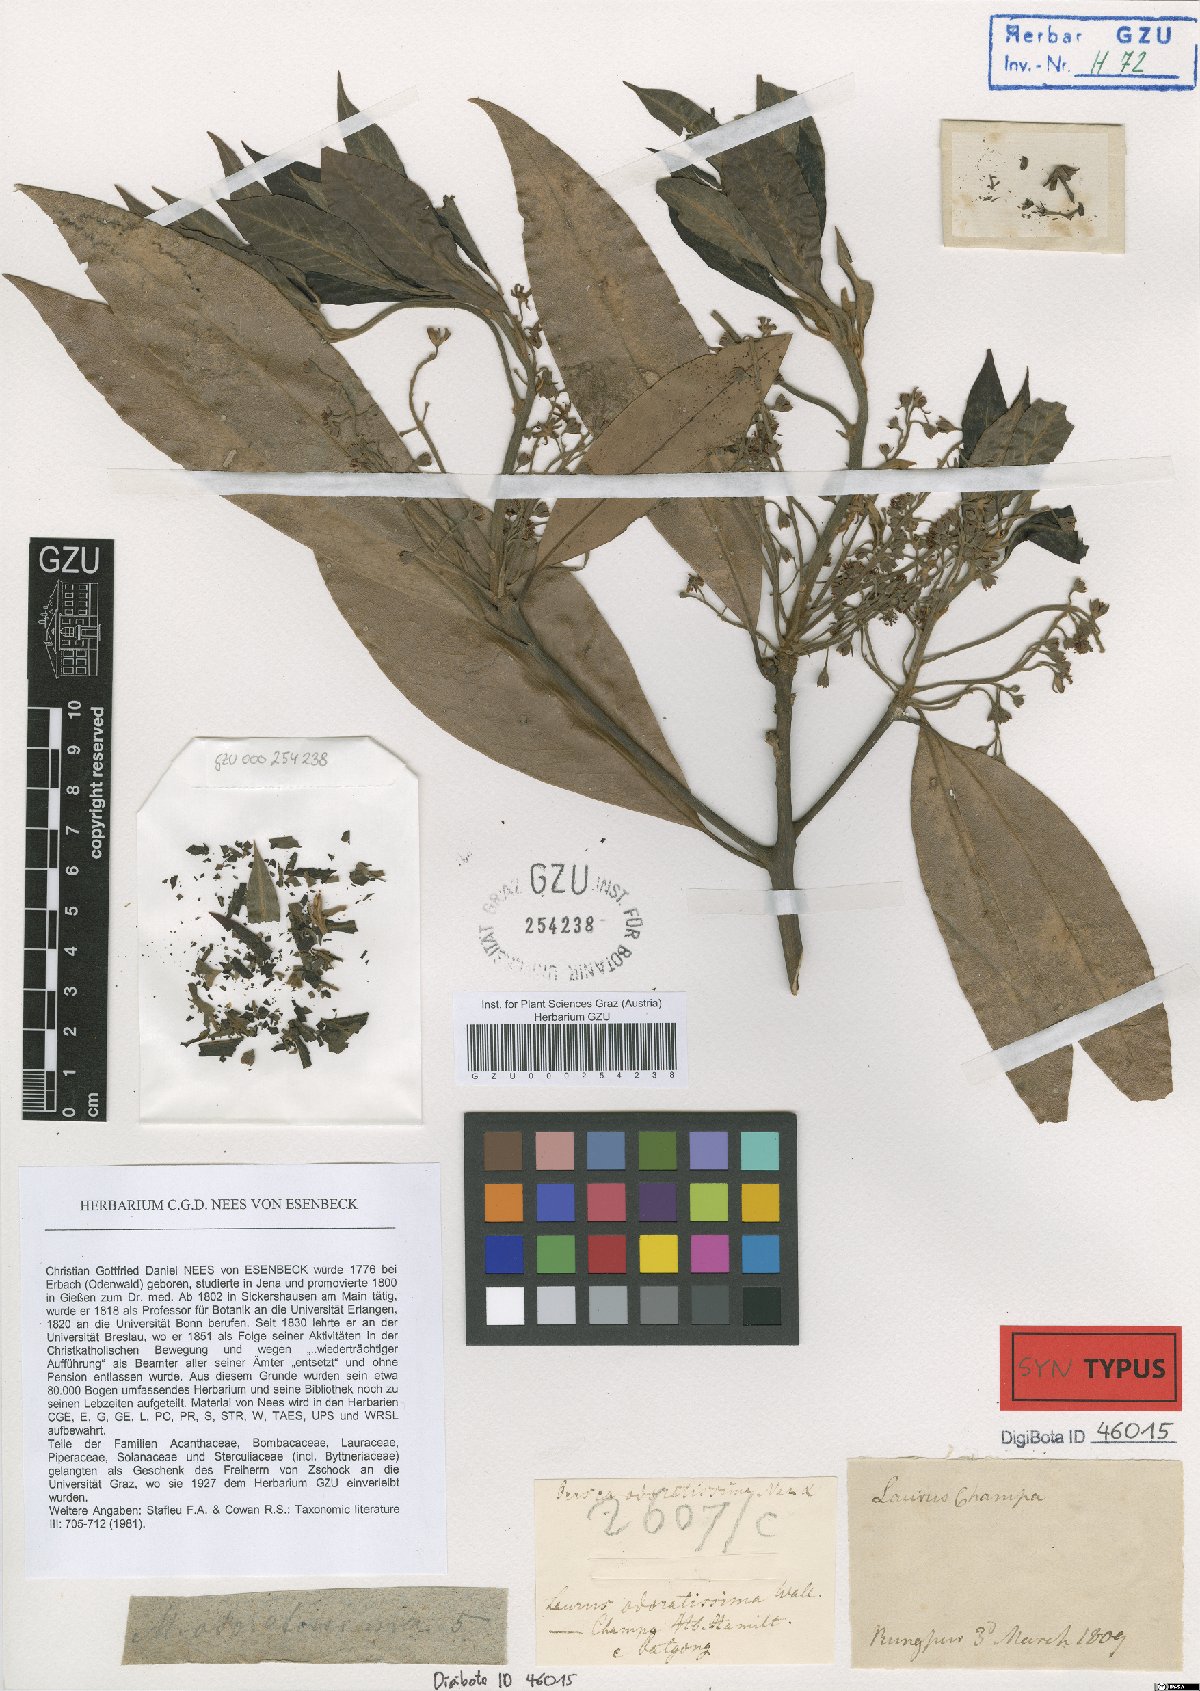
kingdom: Plantae
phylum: Tracheophyta
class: Magnoliopsida
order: Laurales
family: Lauraceae
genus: Machilus
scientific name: Machilus odoratissimus
